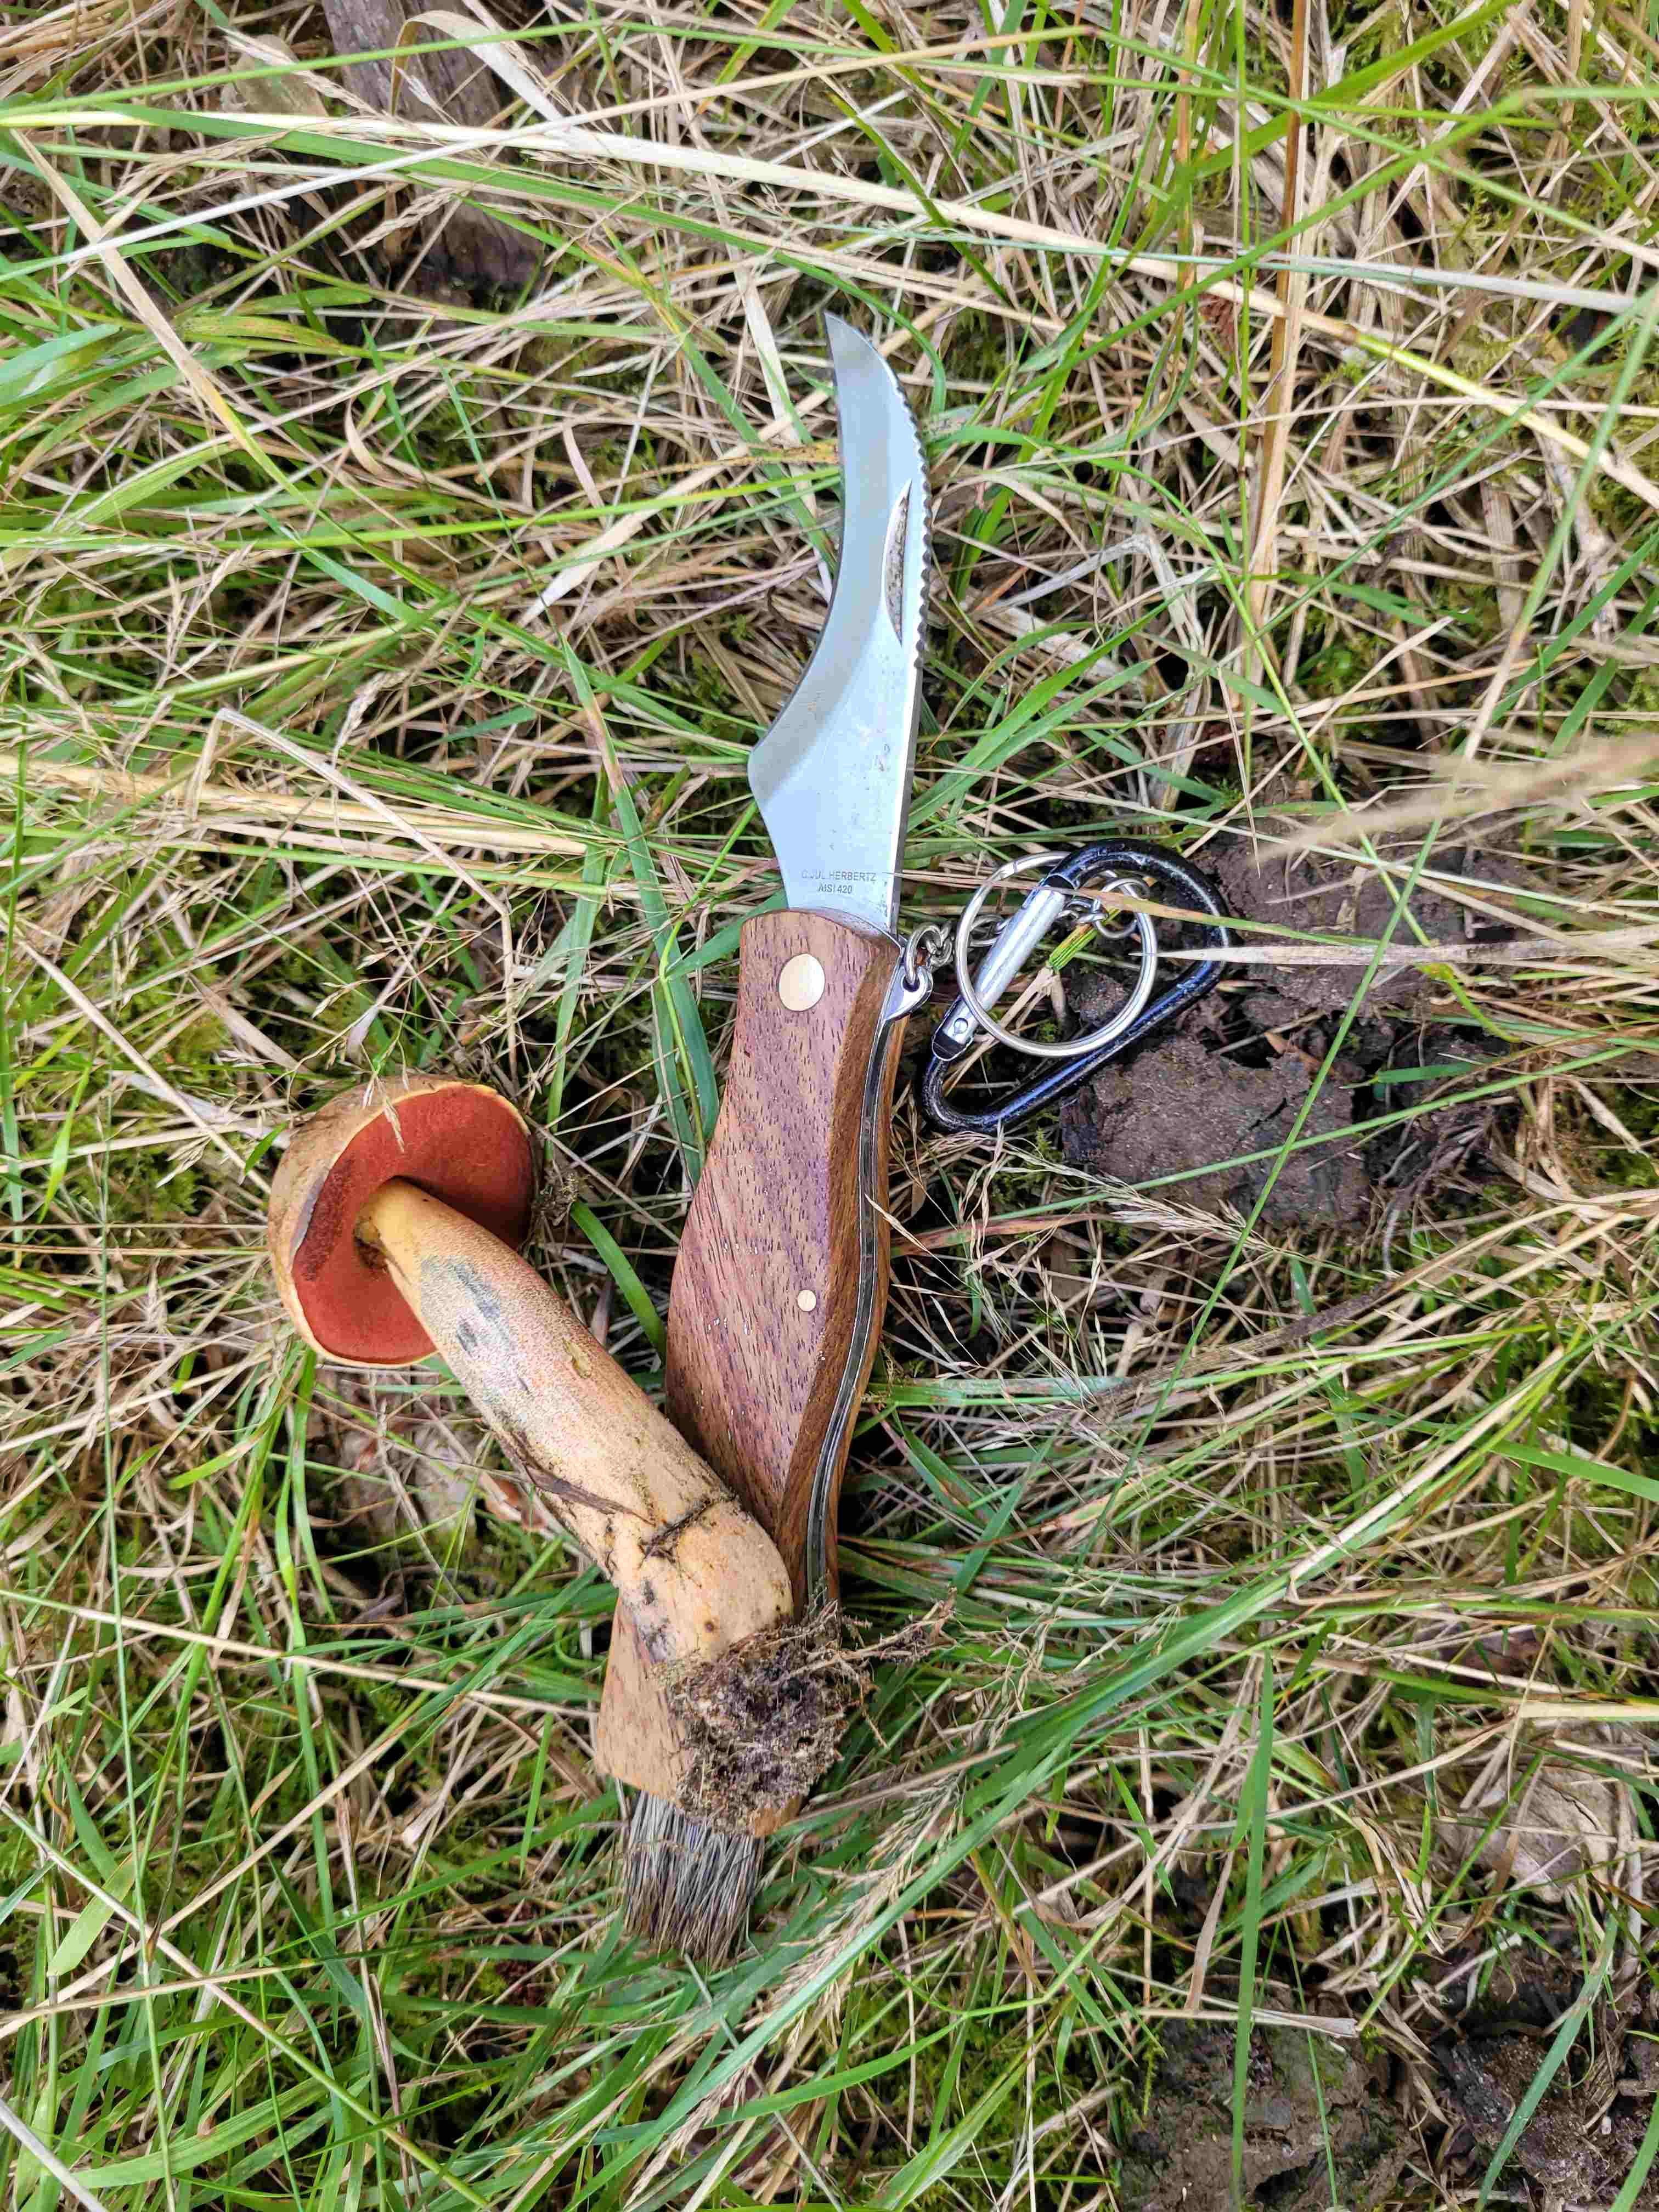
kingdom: Fungi
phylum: Basidiomycota
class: Agaricomycetes
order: Boletales
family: Boletaceae
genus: Neoboletus
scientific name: Neoboletus erythropus
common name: punktstokket indigorørhat
